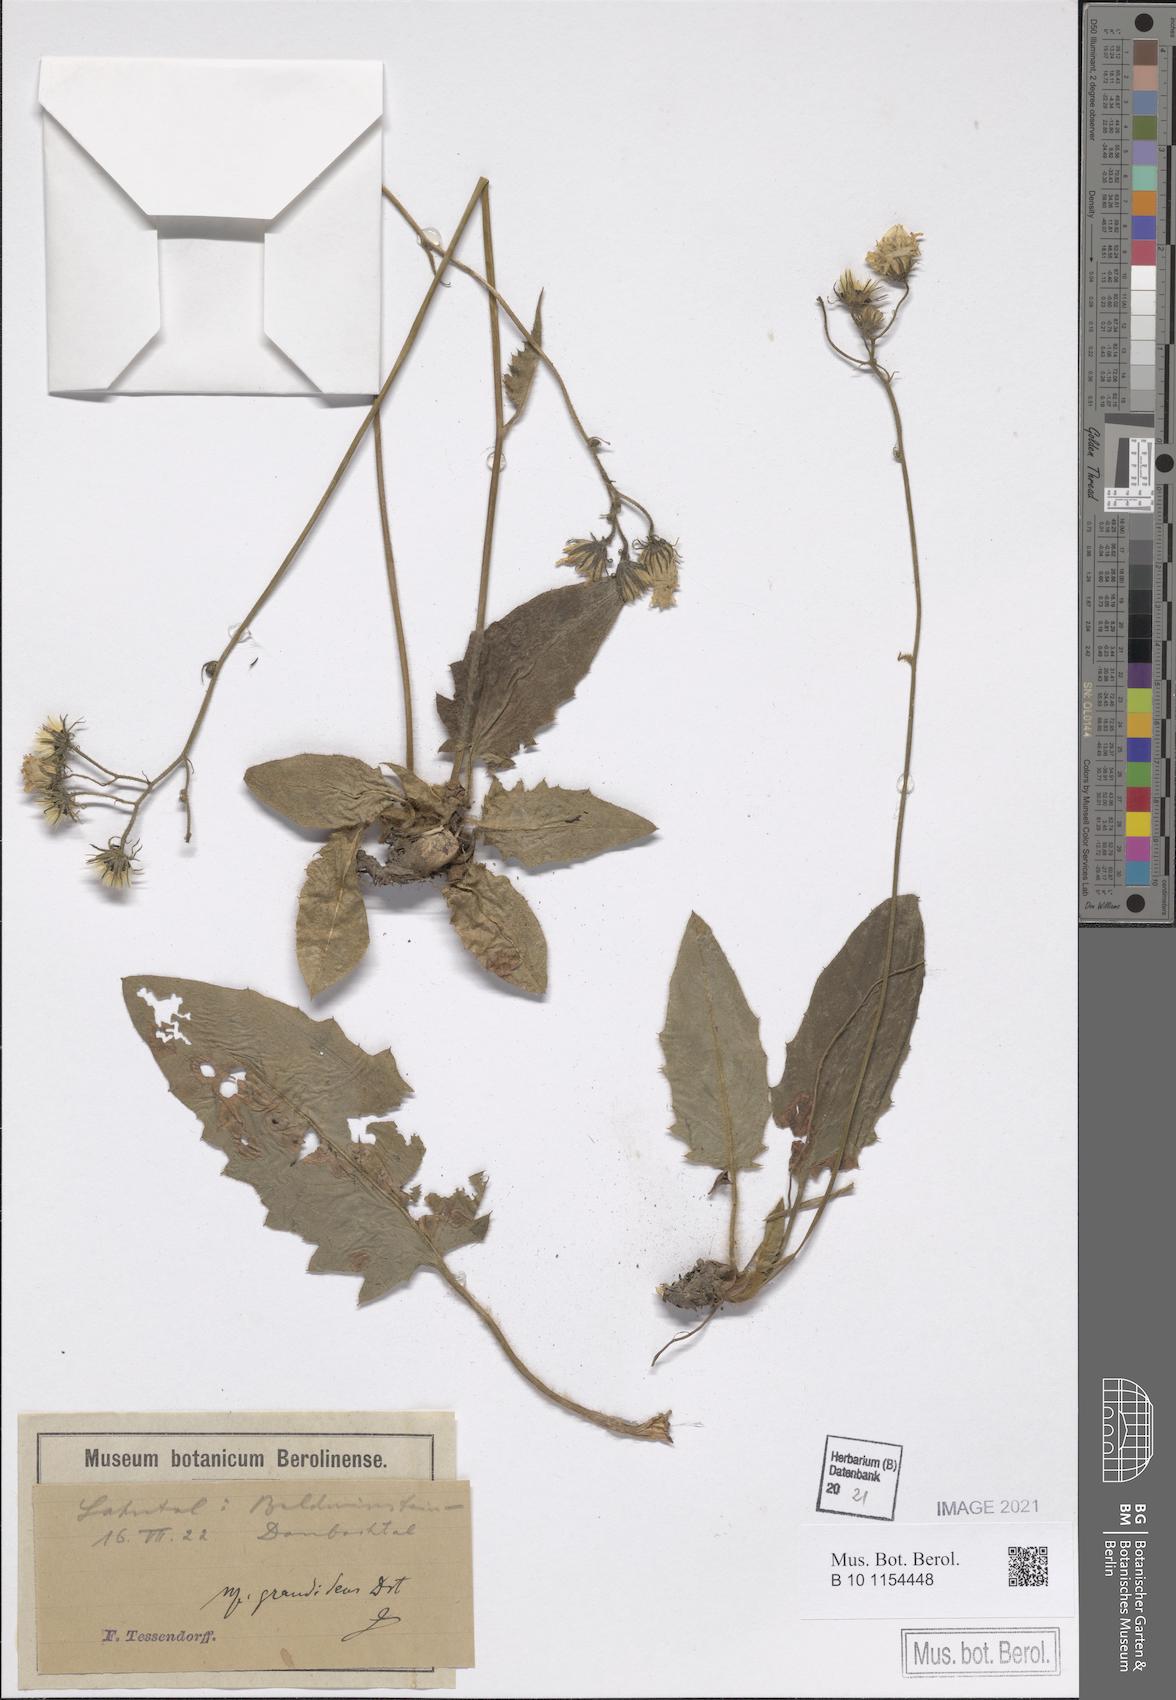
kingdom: Plantae
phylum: Tracheophyta
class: Magnoliopsida
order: Asterales
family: Asteraceae
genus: Hieracium
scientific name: Hieracium murorum
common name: Wall hawkweed
